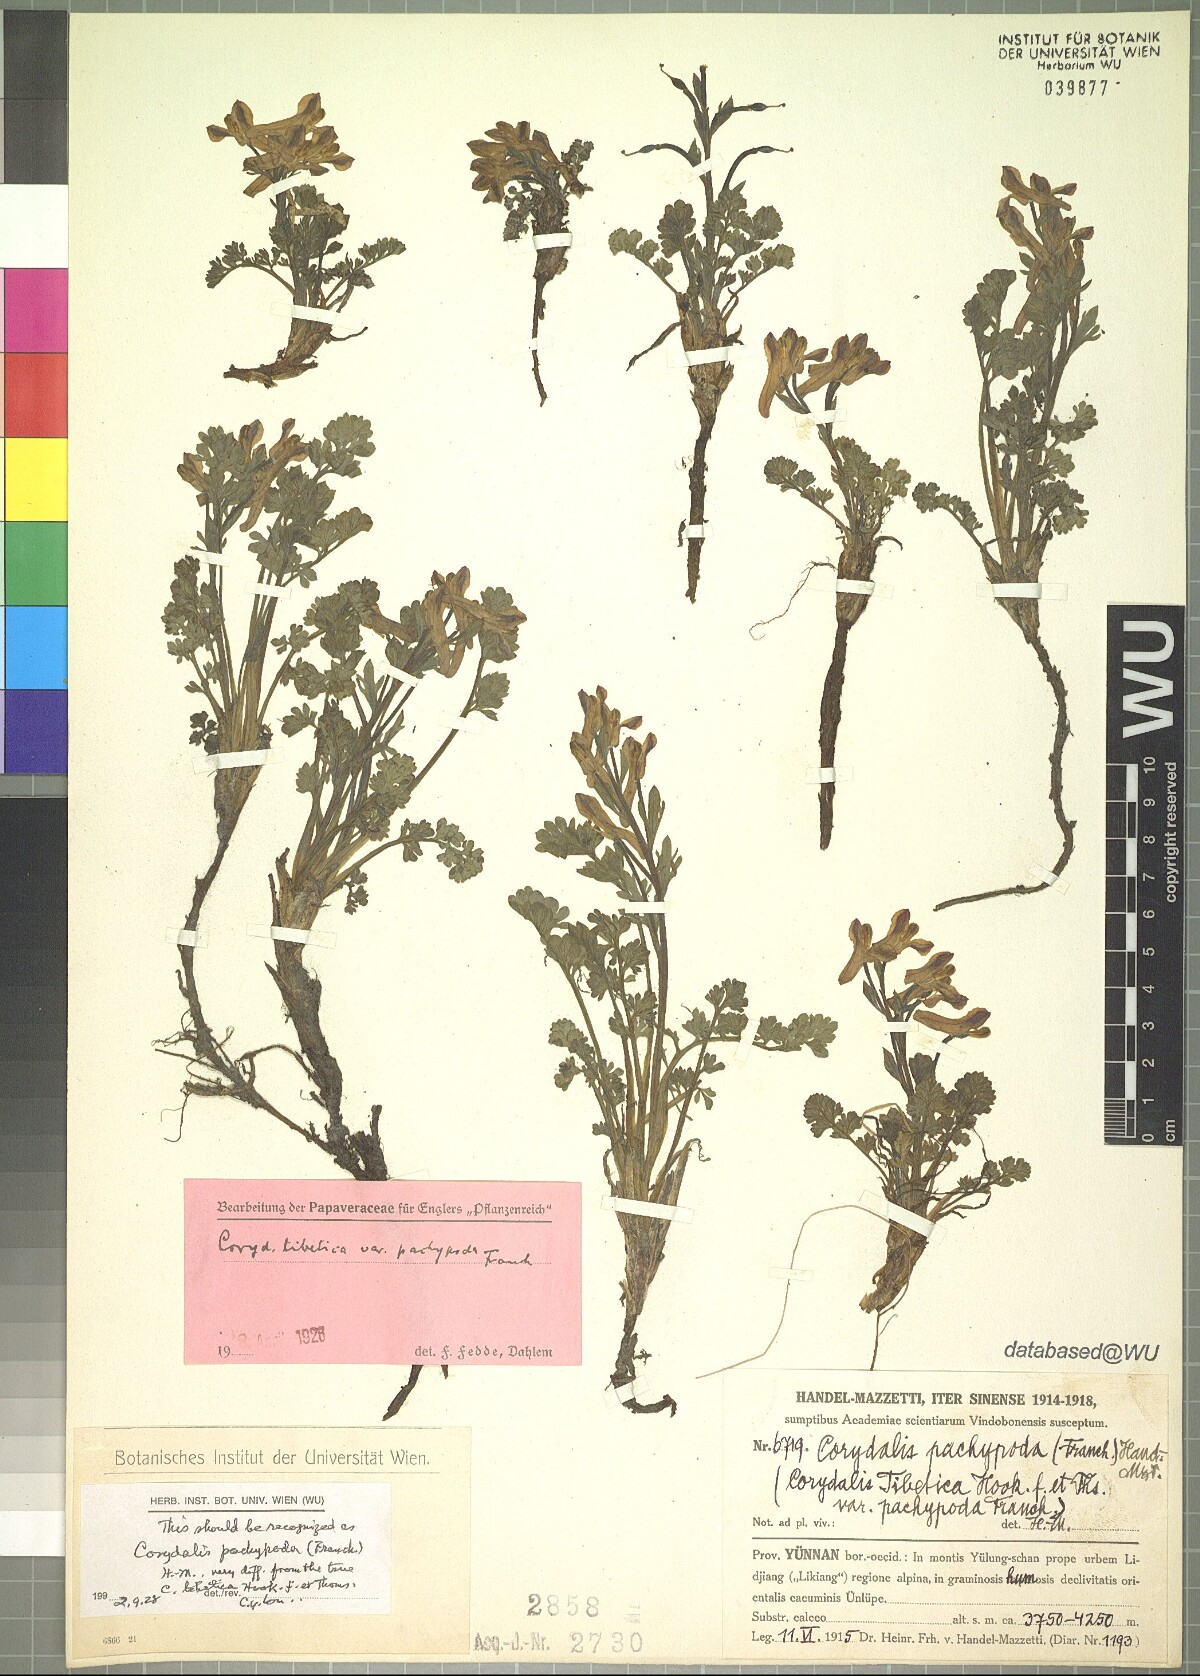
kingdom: Plantae
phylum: Tracheophyta
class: Magnoliopsida
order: Ranunculales
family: Papaveraceae
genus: Corydalis
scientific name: Corydalis pachypoda
